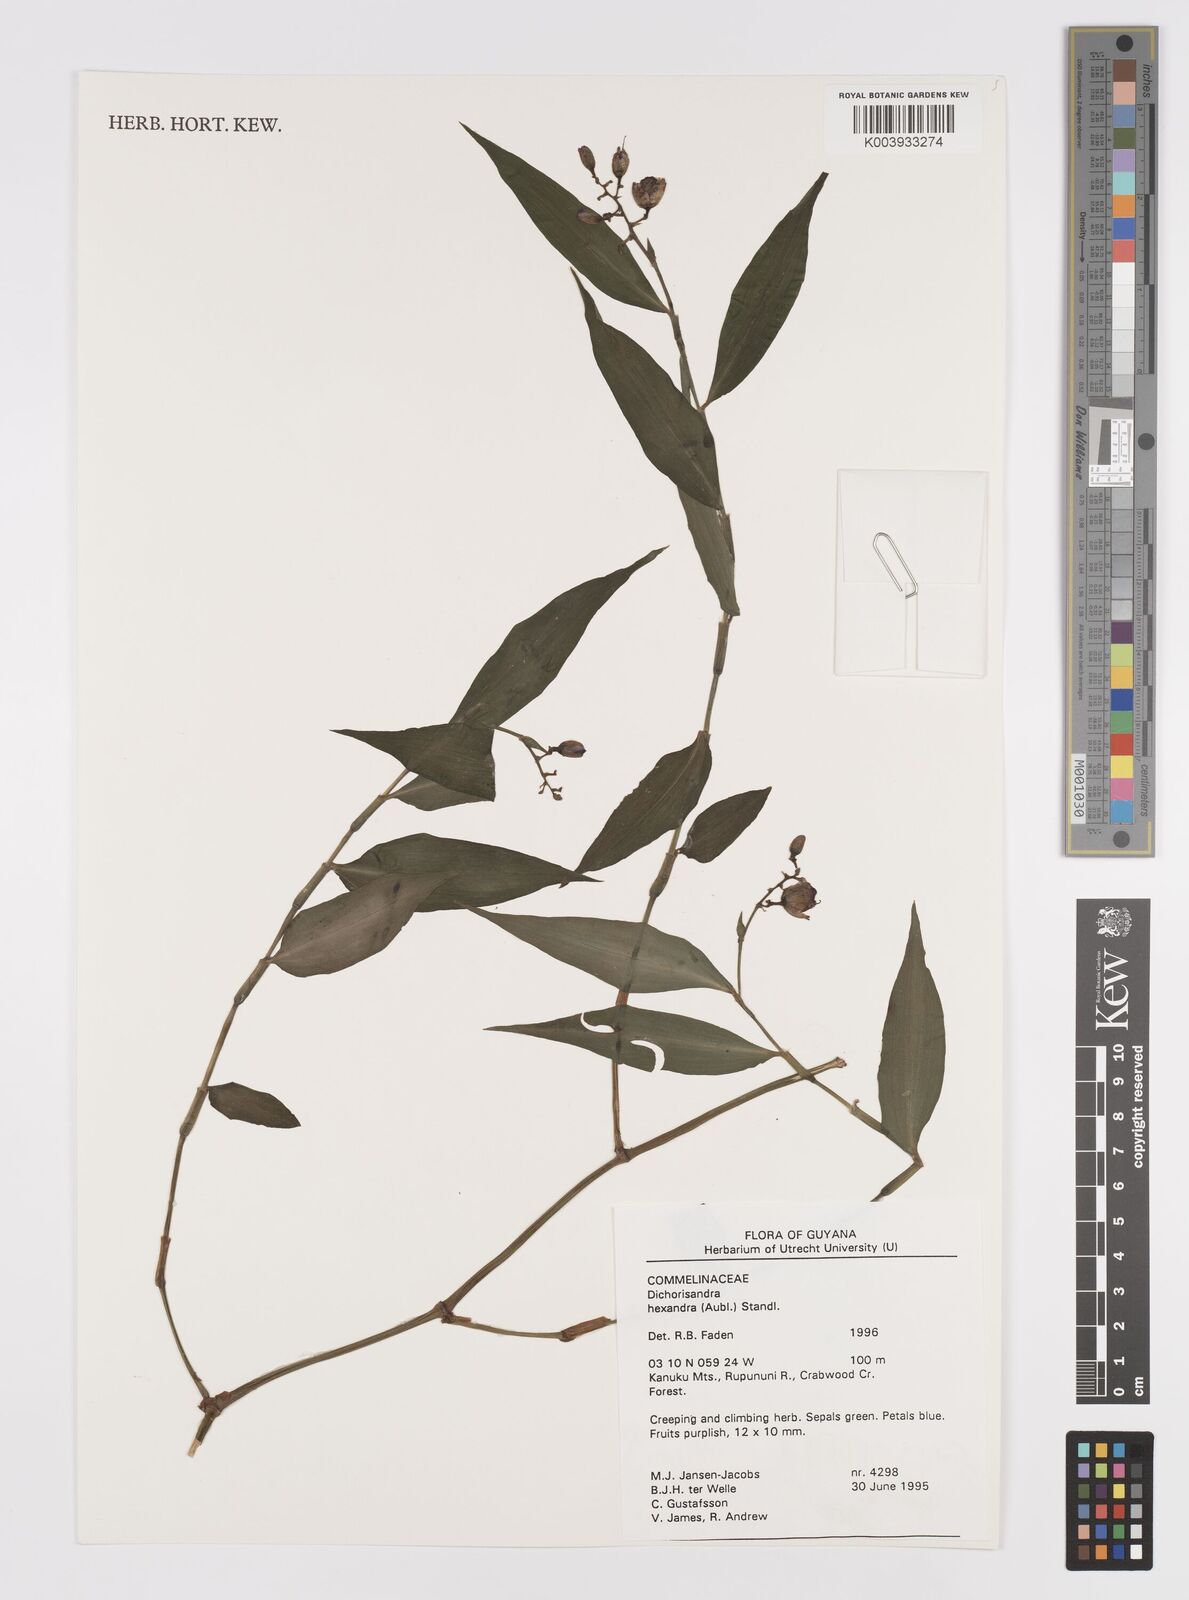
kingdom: Plantae
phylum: Tracheophyta
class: Liliopsida
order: Commelinales
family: Commelinaceae
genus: Dichorisandra
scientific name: Dichorisandra hexandra
